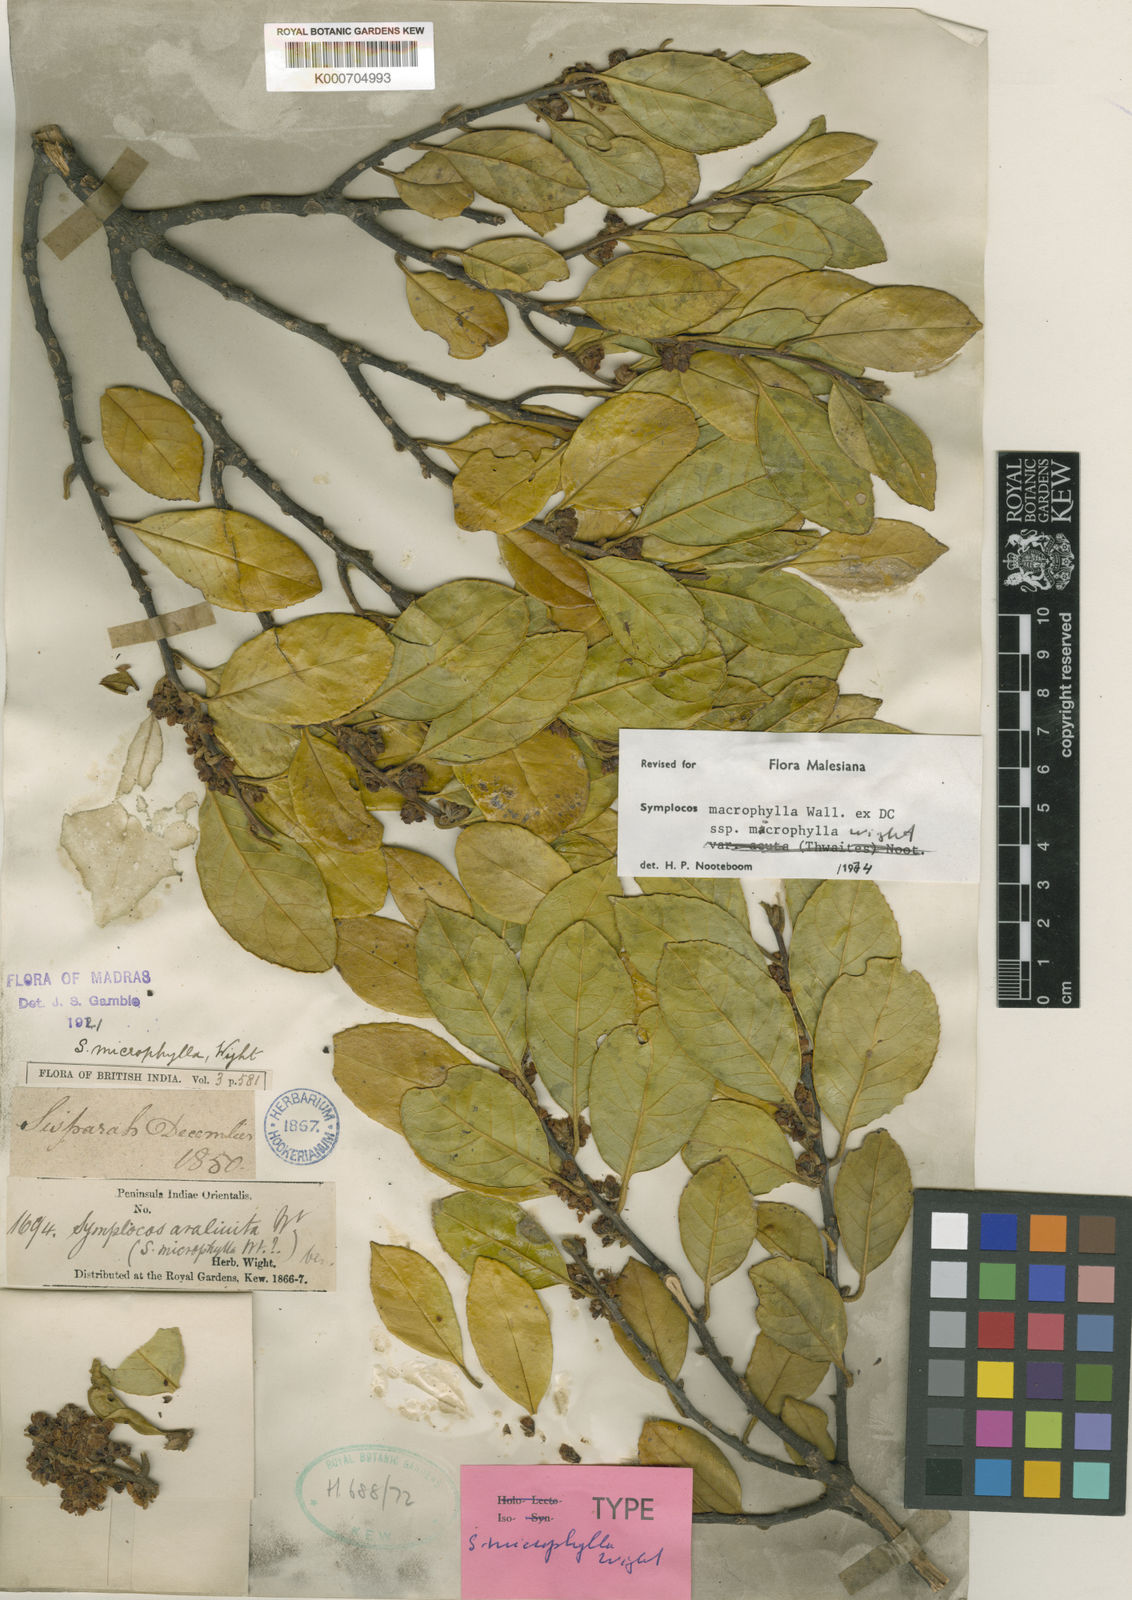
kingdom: Plantae
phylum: Tracheophyta
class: Magnoliopsida
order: Ericales
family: Symplocaceae
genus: Symplocos
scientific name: Symplocos
